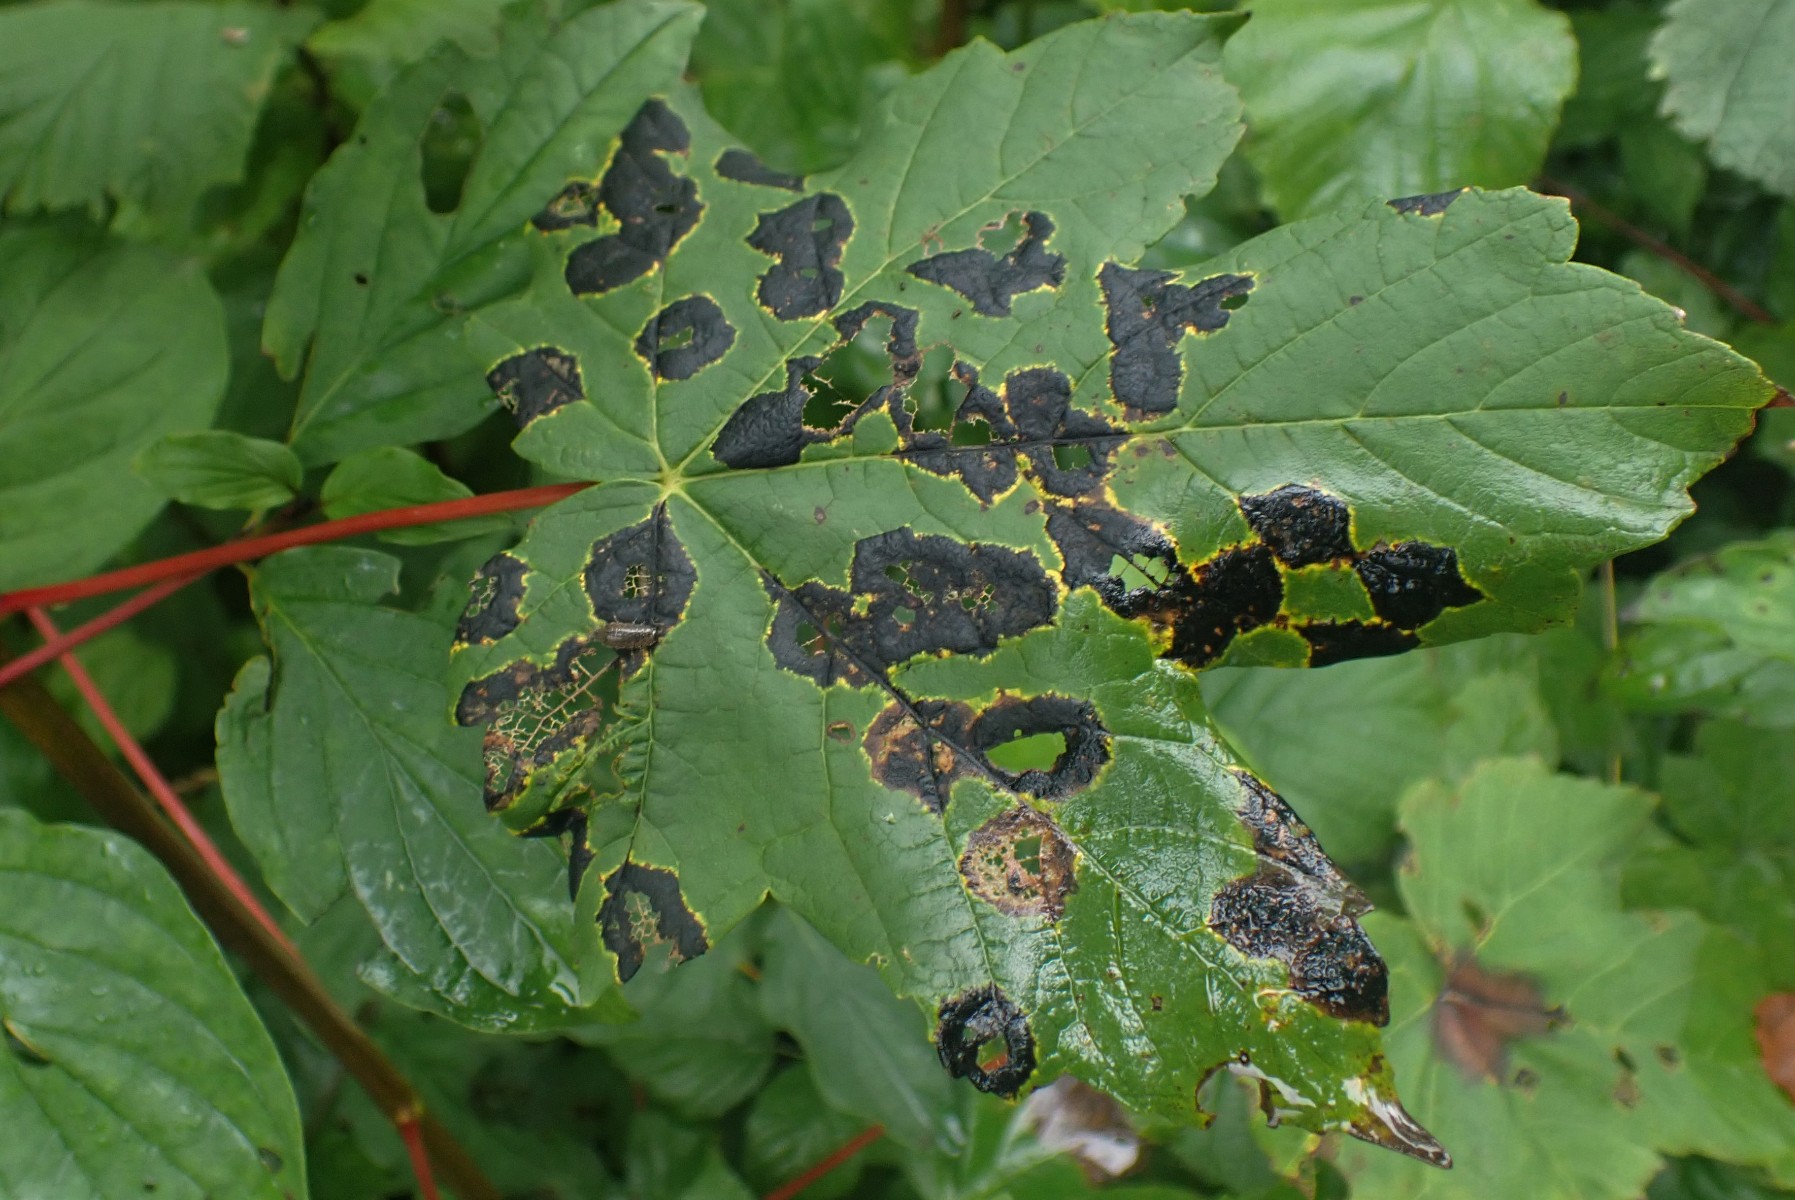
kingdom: Fungi
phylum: Ascomycota
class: Leotiomycetes
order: Rhytismatales
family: Rhytismataceae
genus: Rhytisma
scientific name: Rhytisma acerinum
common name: ahorn-rynkeplet
